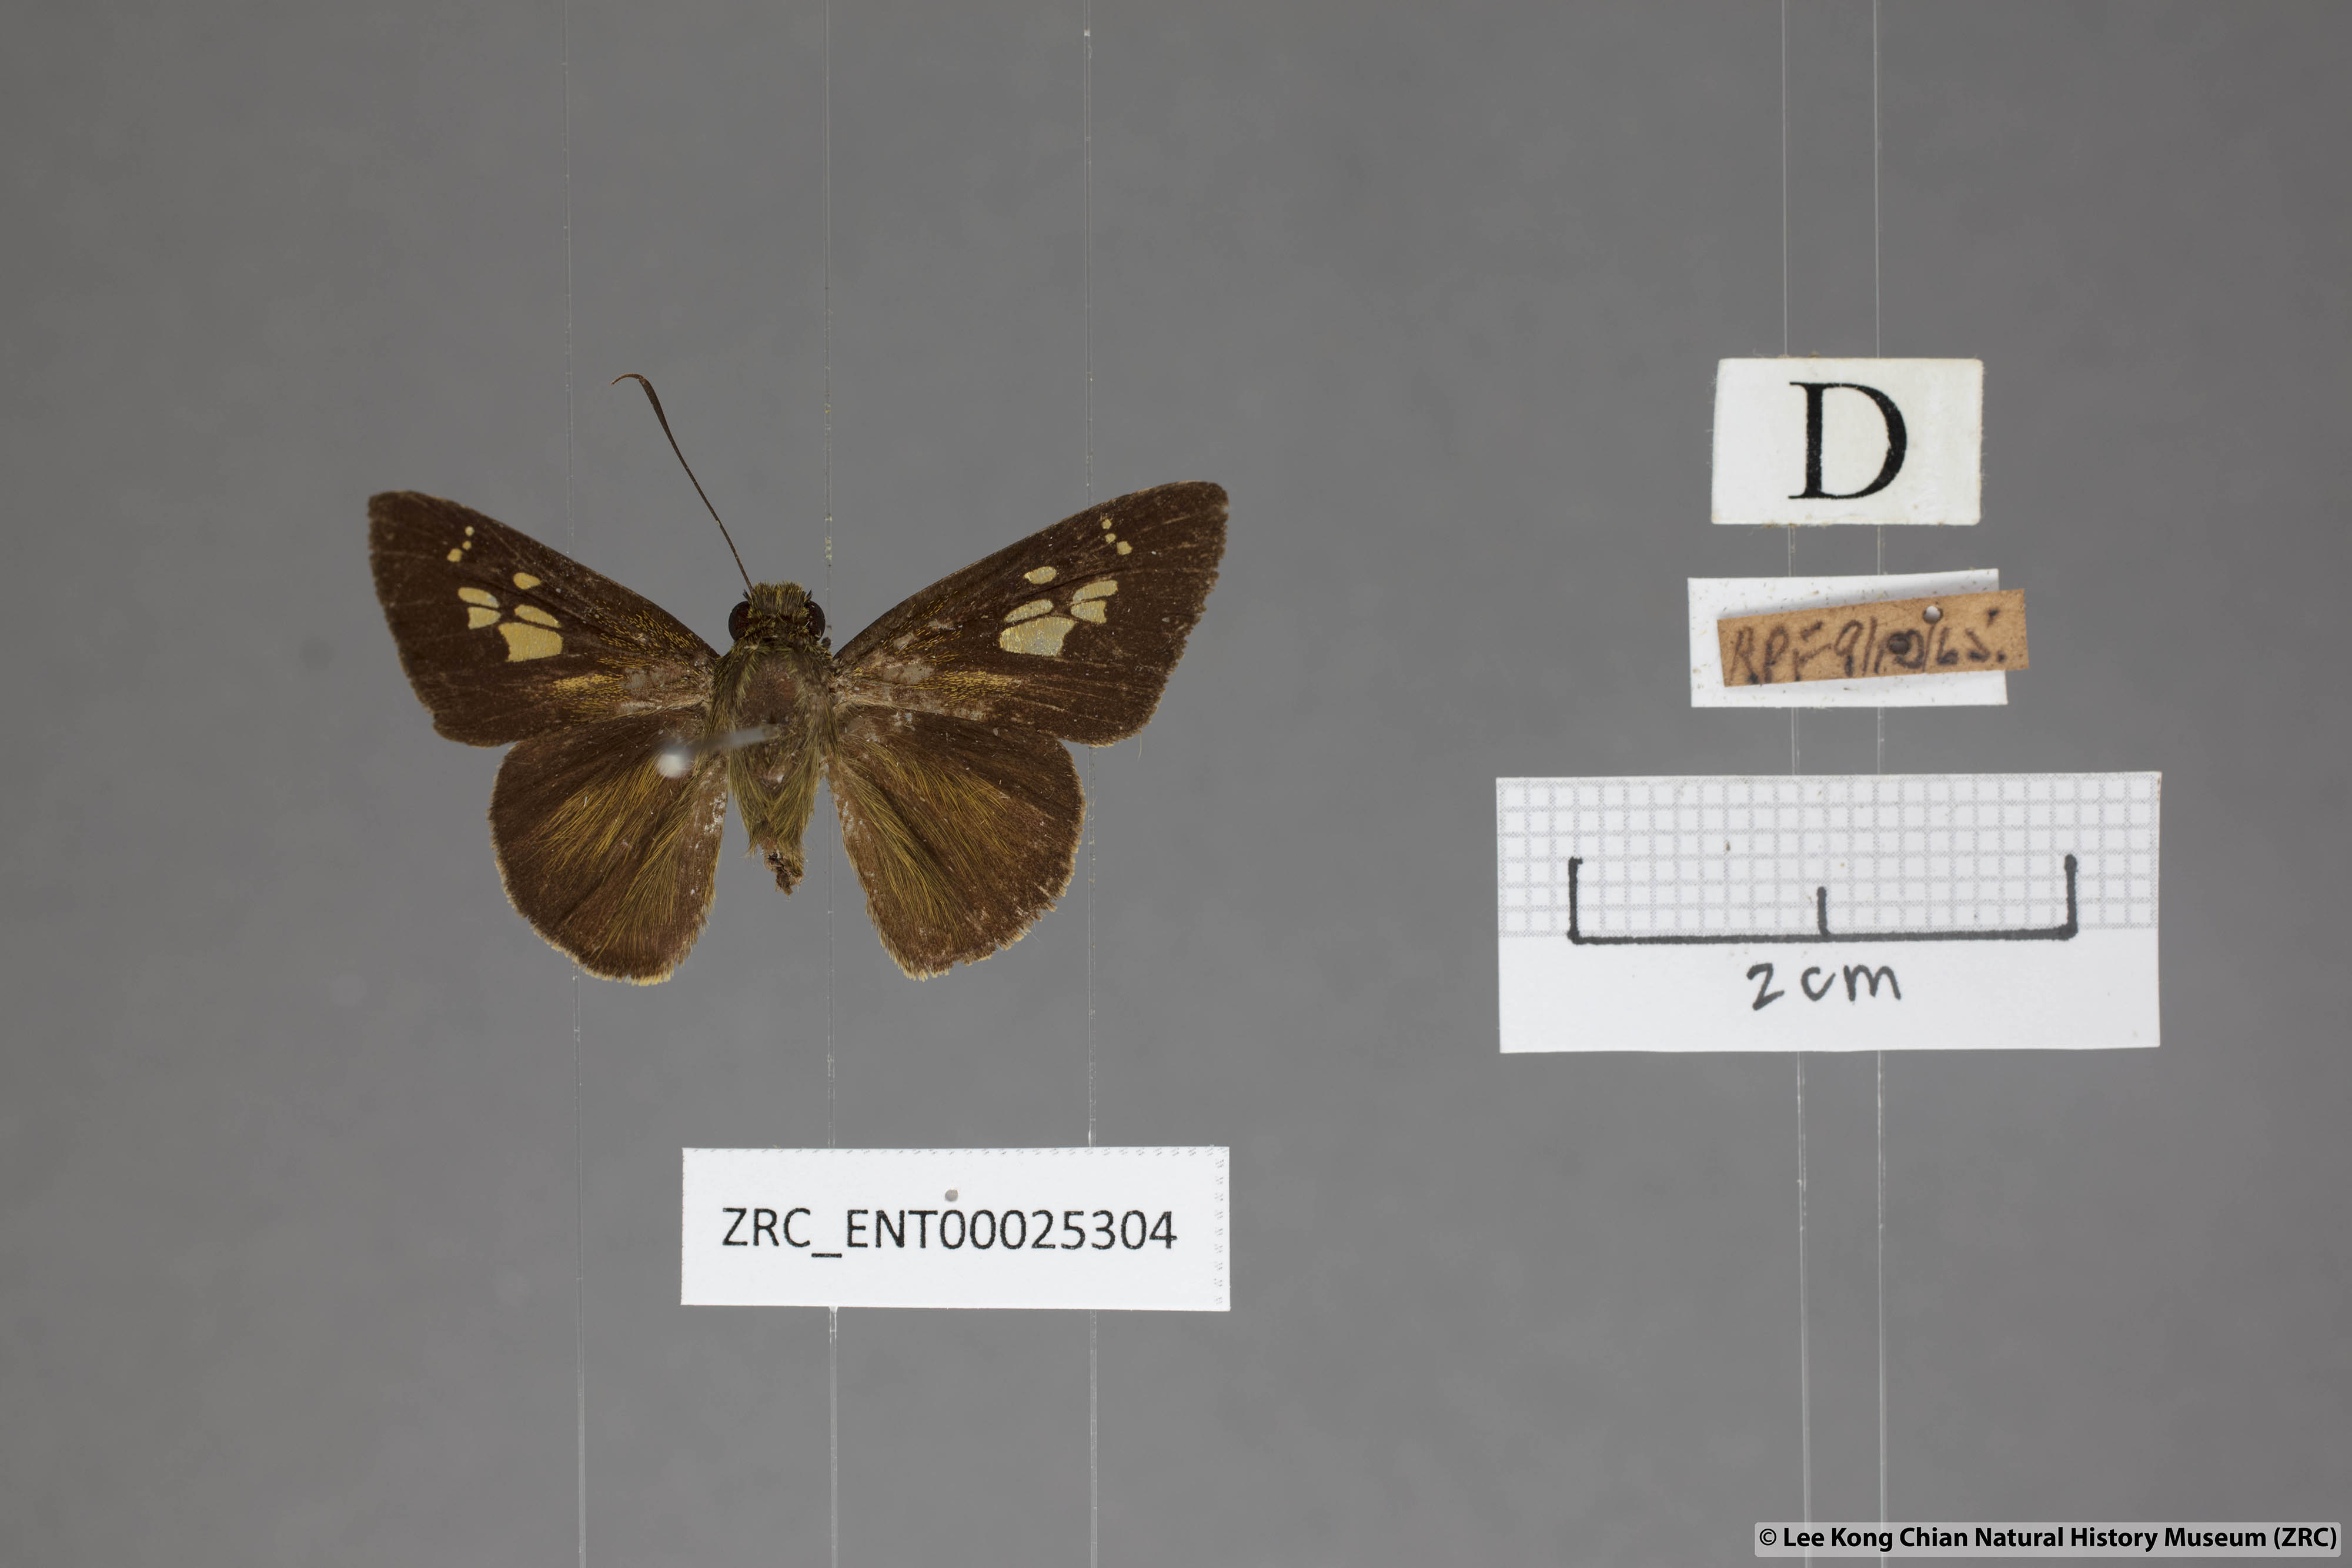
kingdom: Animalia
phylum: Arthropoda
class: Insecta
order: Lepidoptera
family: Hesperiidae
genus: Pemara
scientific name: Pemara pugnans
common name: Pugnacious lancer
